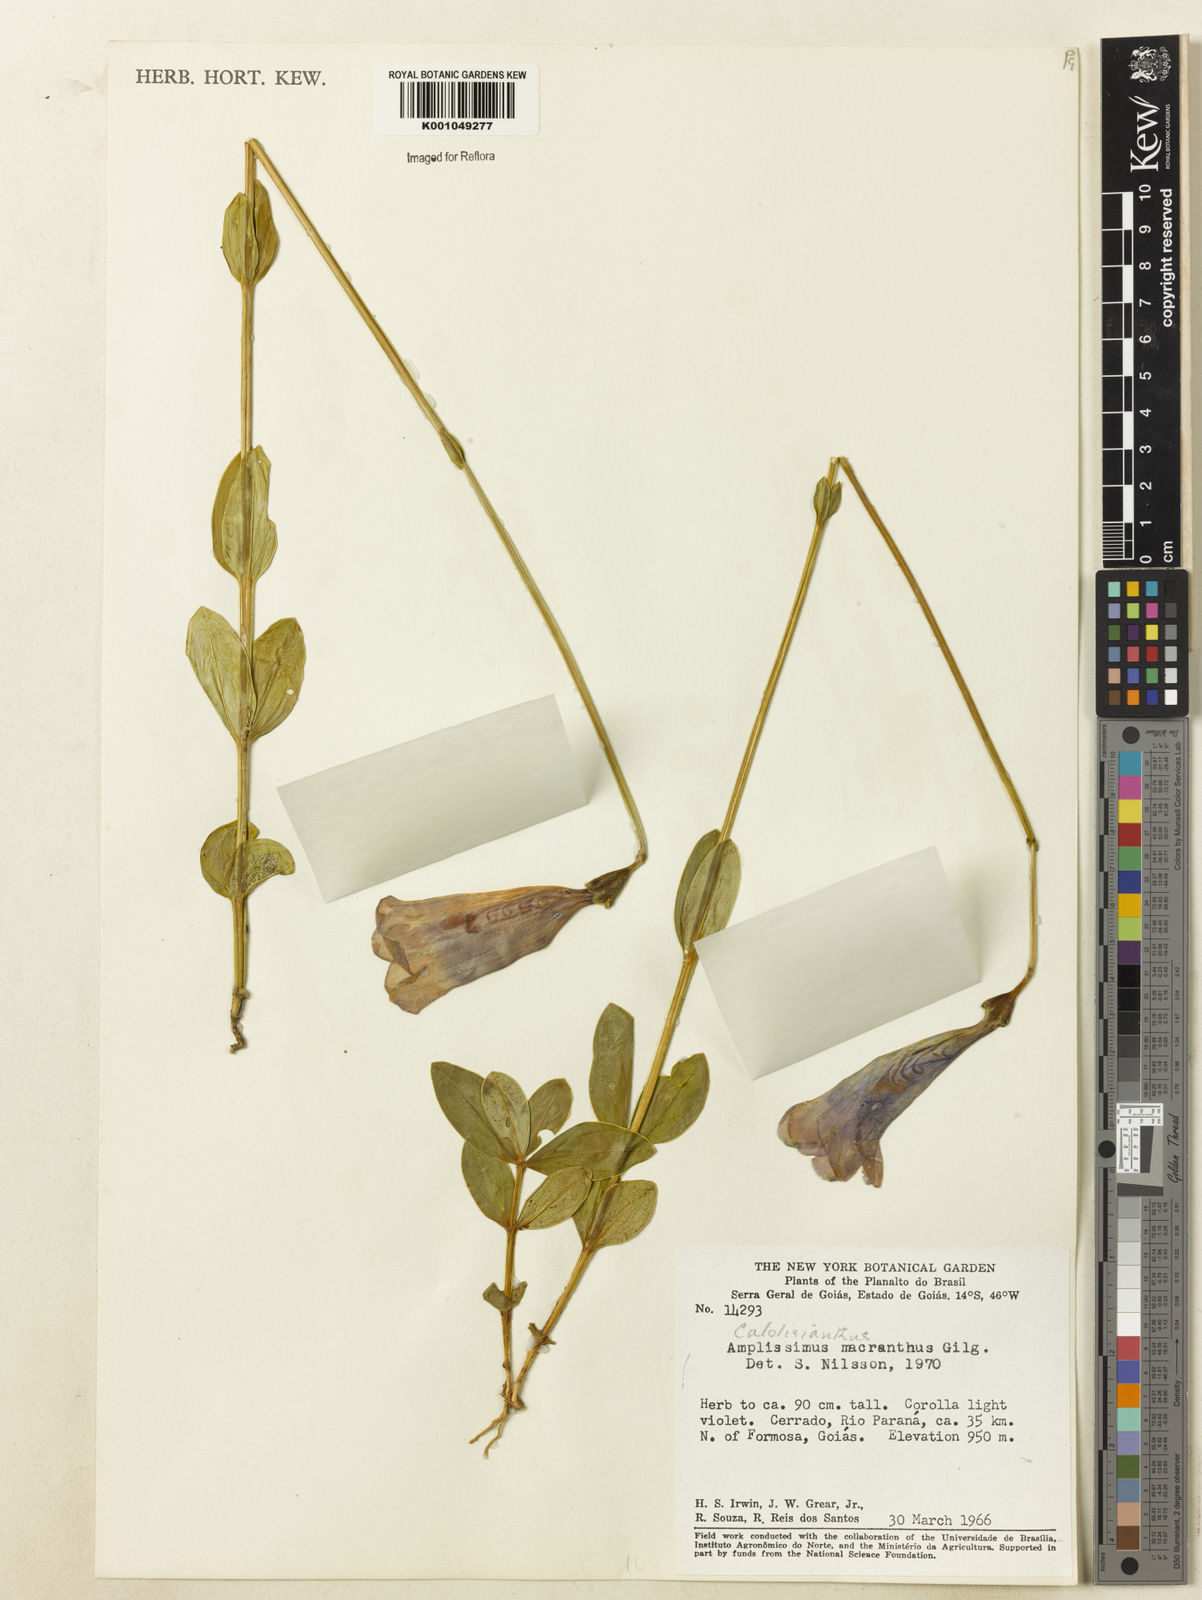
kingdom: Plantae
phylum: Tracheophyta
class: Magnoliopsida
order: Gentianales
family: Gentianaceae
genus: Calolisianthus
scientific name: Calolisianthus pendulus
